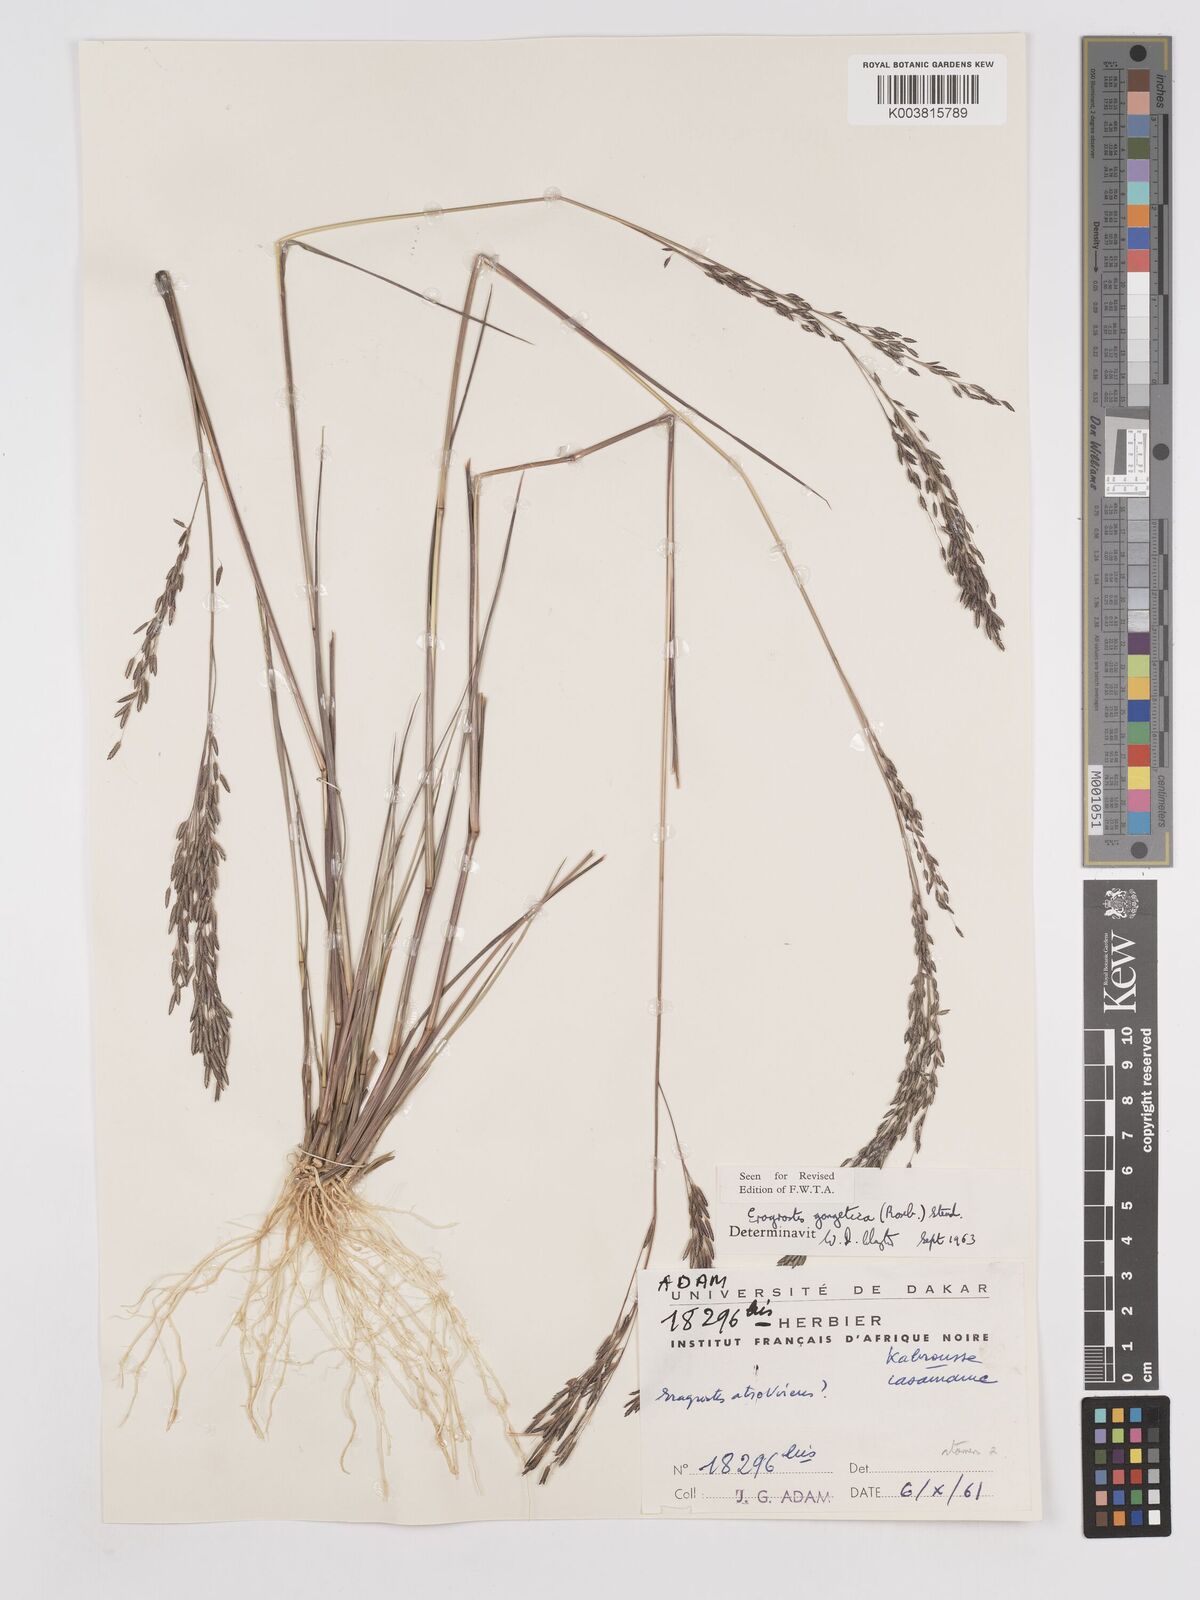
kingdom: Plantae
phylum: Tracheophyta
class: Liliopsida
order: Poales
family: Poaceae
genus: Eragrostis
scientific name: Eragrostis gangetica
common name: Slimflower lovegrass
